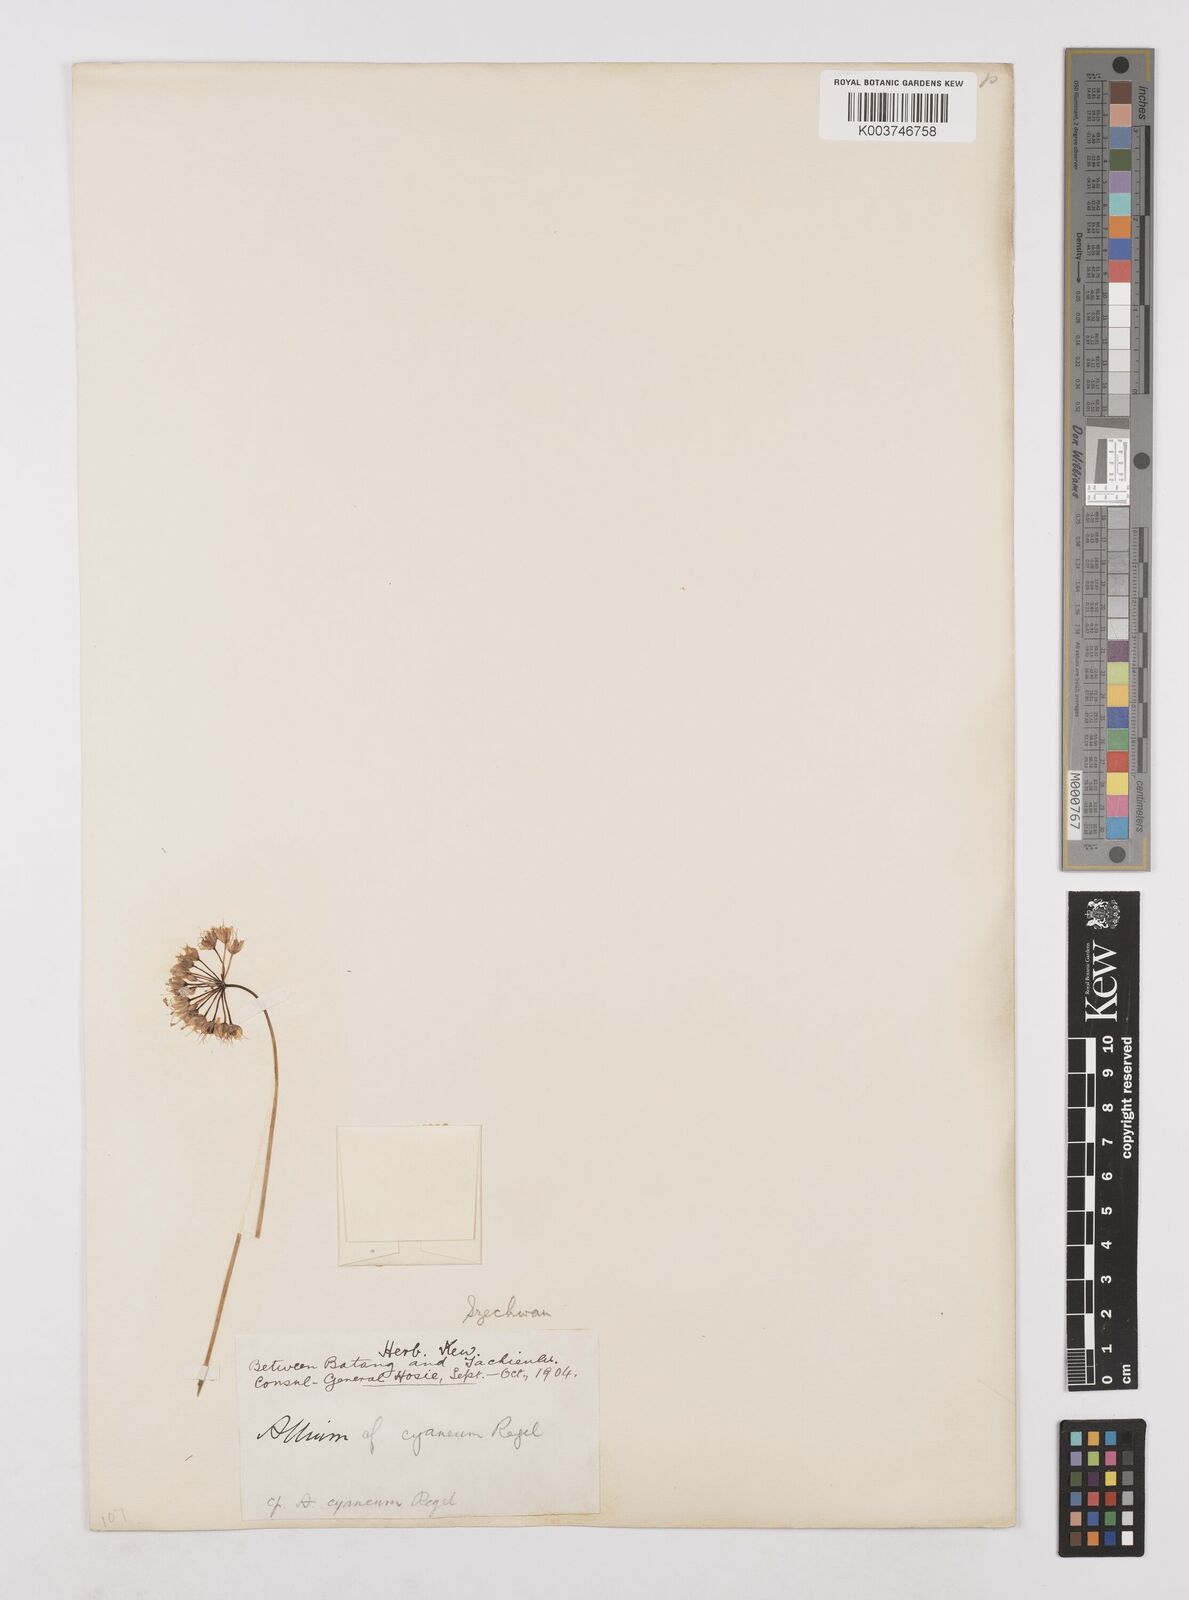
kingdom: Plantae
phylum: Tracheophyta
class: Liliopsida
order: Asparagales
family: Amaryllidaceae
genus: Allium
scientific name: Allium cyaneum
